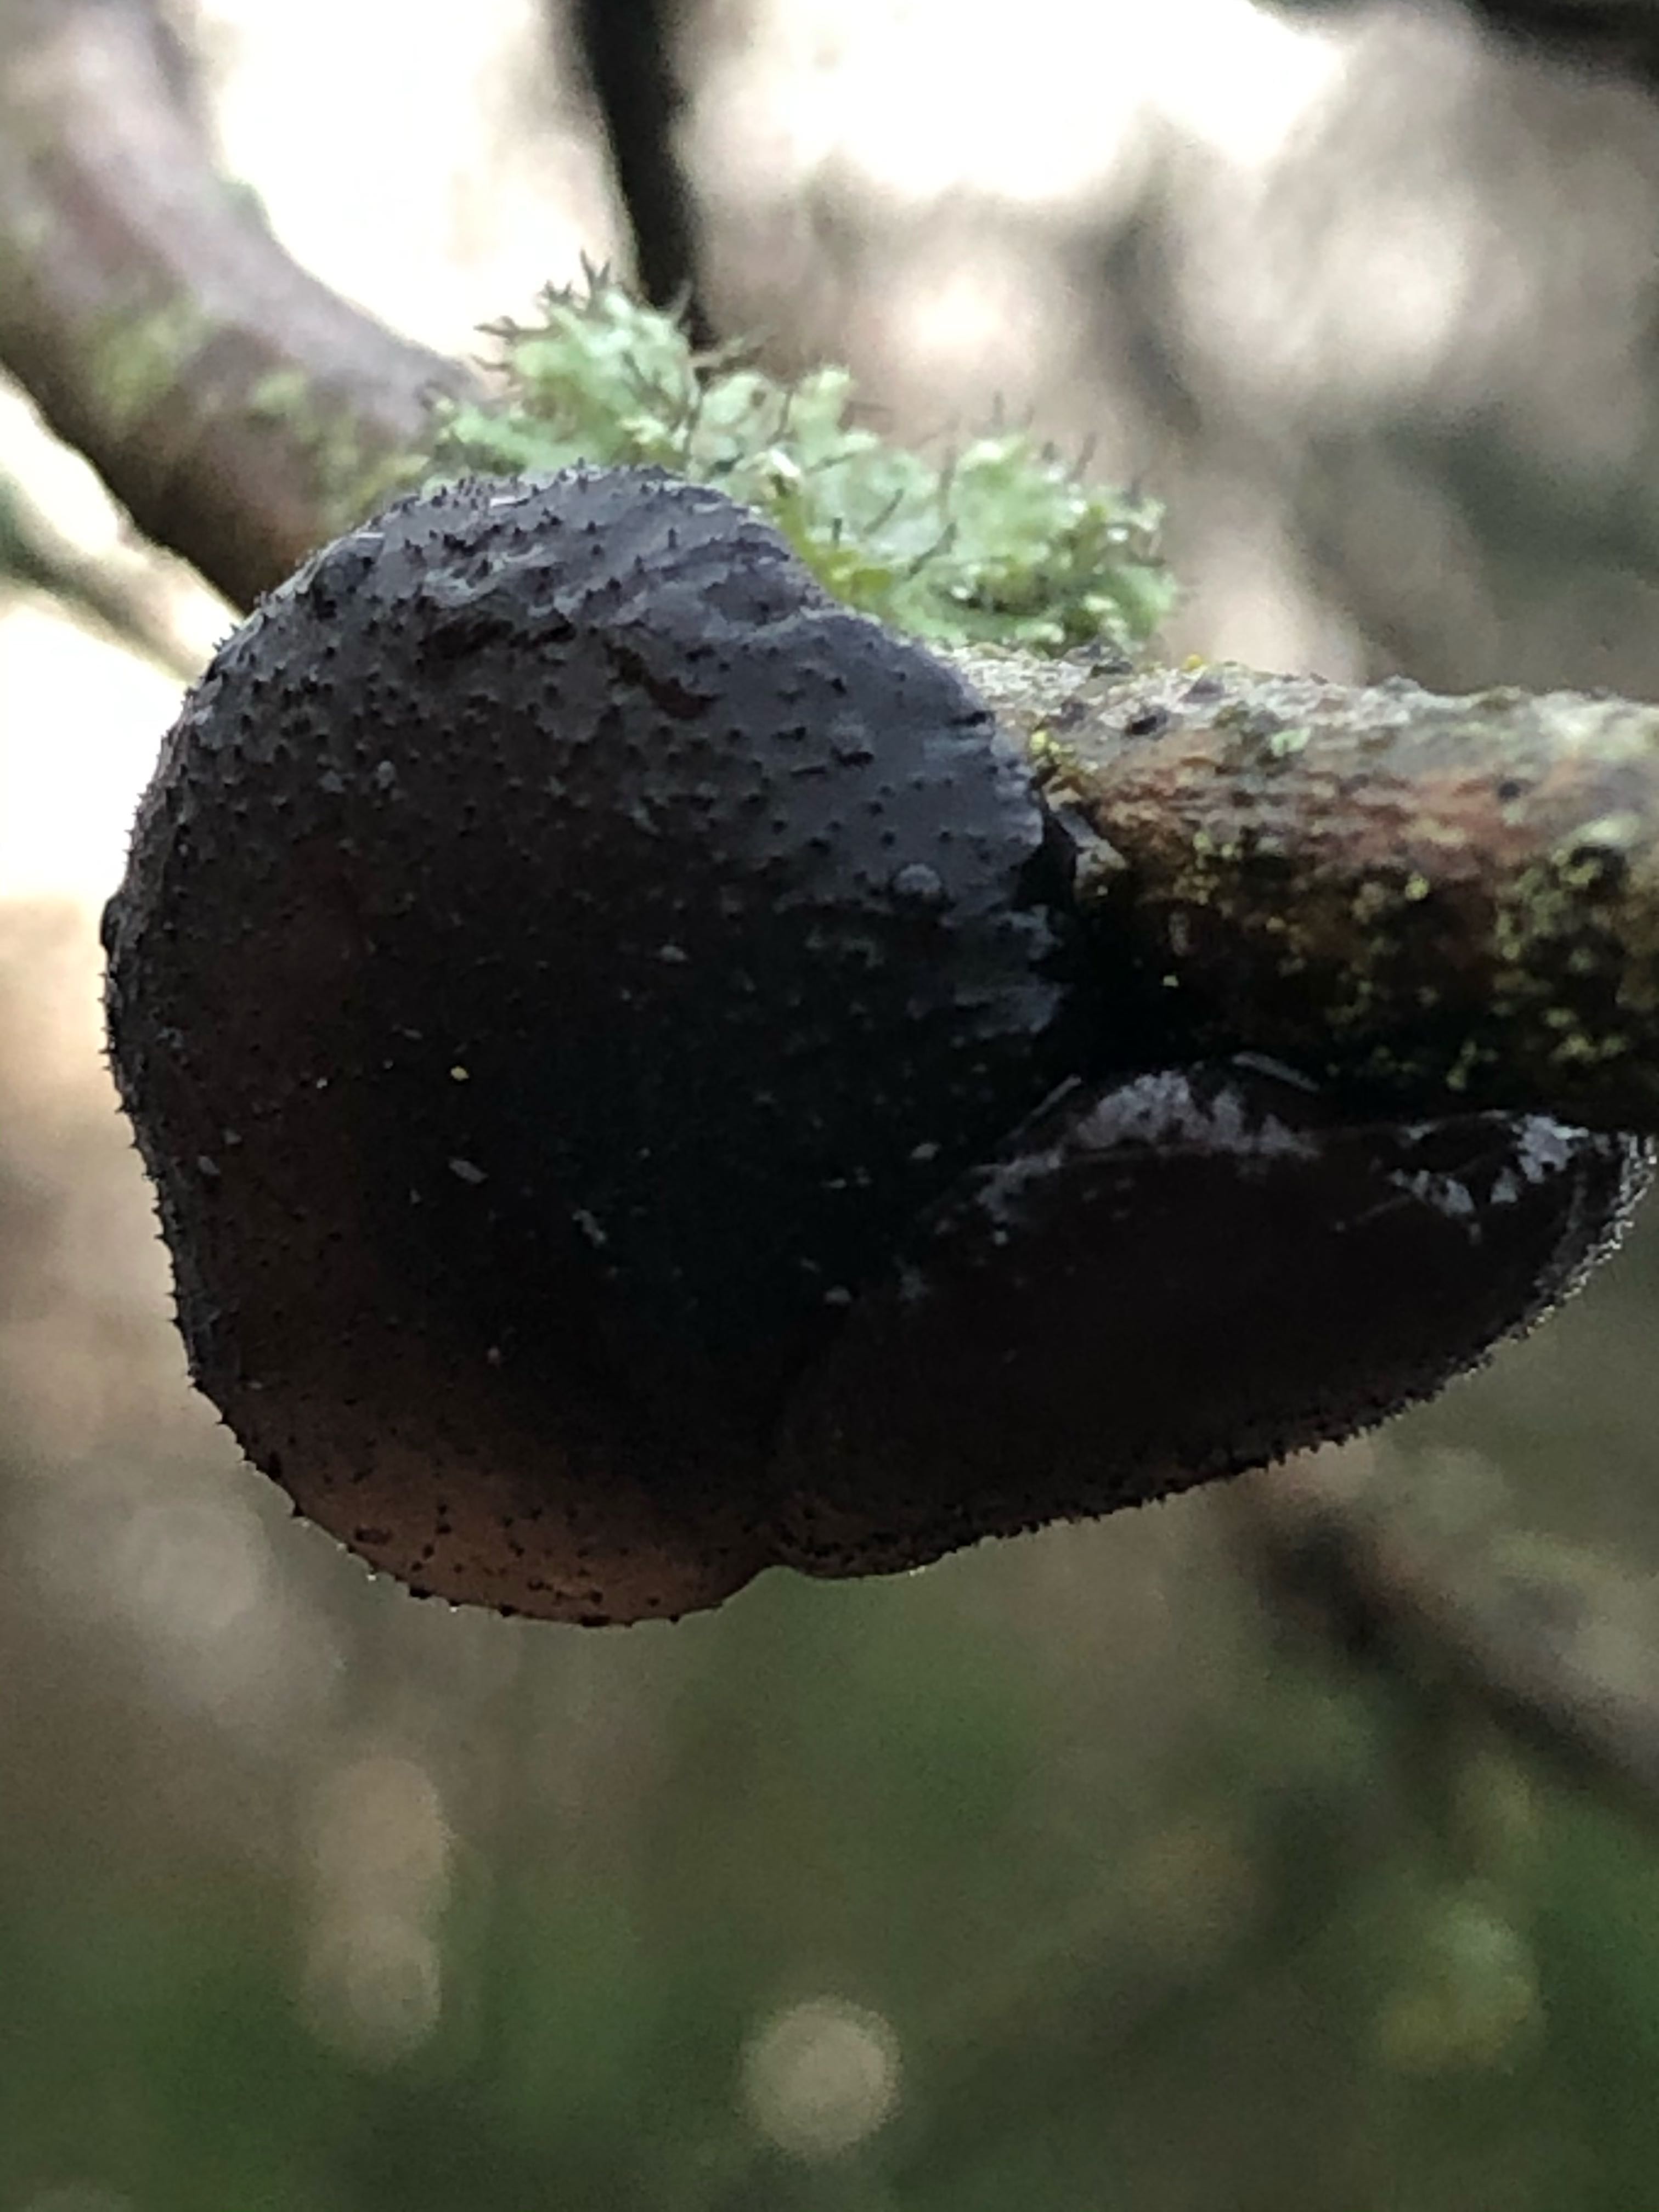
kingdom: Fungi
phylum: Basidiomycota
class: Agaricomycetes
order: Auriculariales
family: Auriculariaceae
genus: Exidia
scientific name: Exidia glandulosa
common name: ege-bævretop
